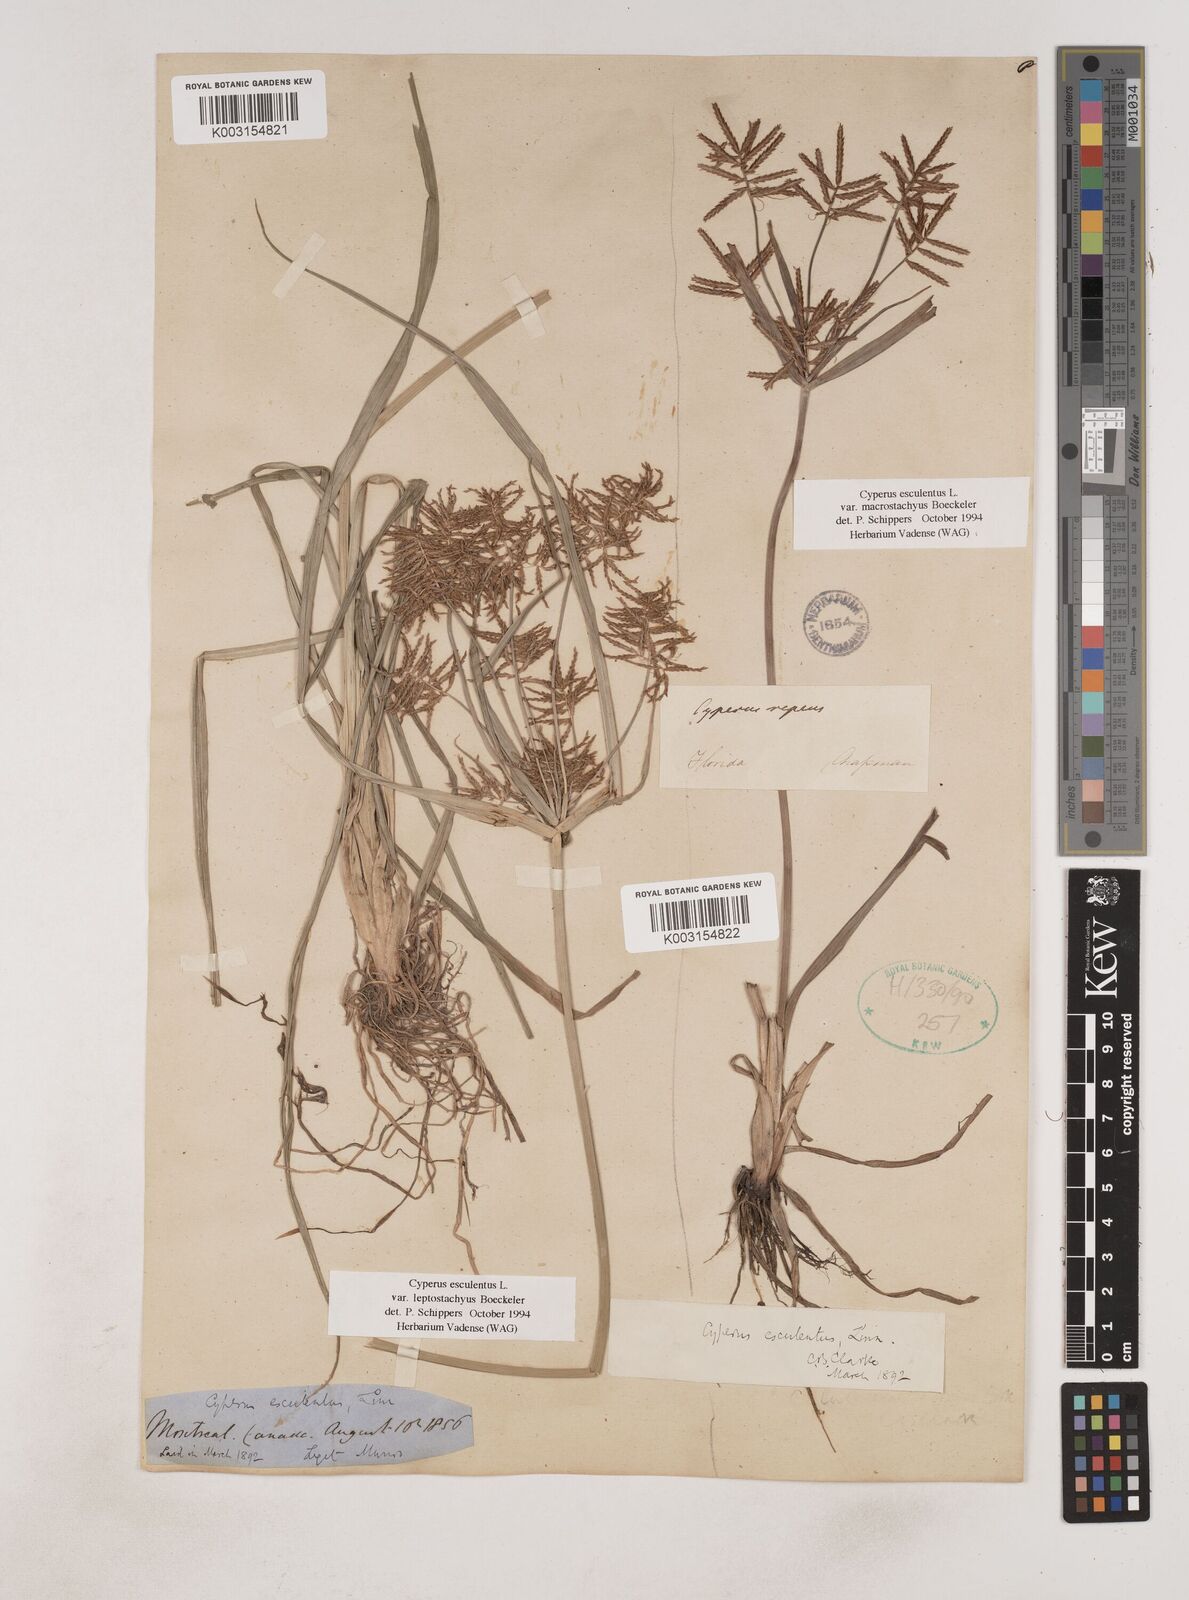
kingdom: Plantae
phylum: Tracheophyta
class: Liliopsida
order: Poales
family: Cyperaceae
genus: Cyperus
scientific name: Cyperus esculentus
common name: Yellow nutsedge
